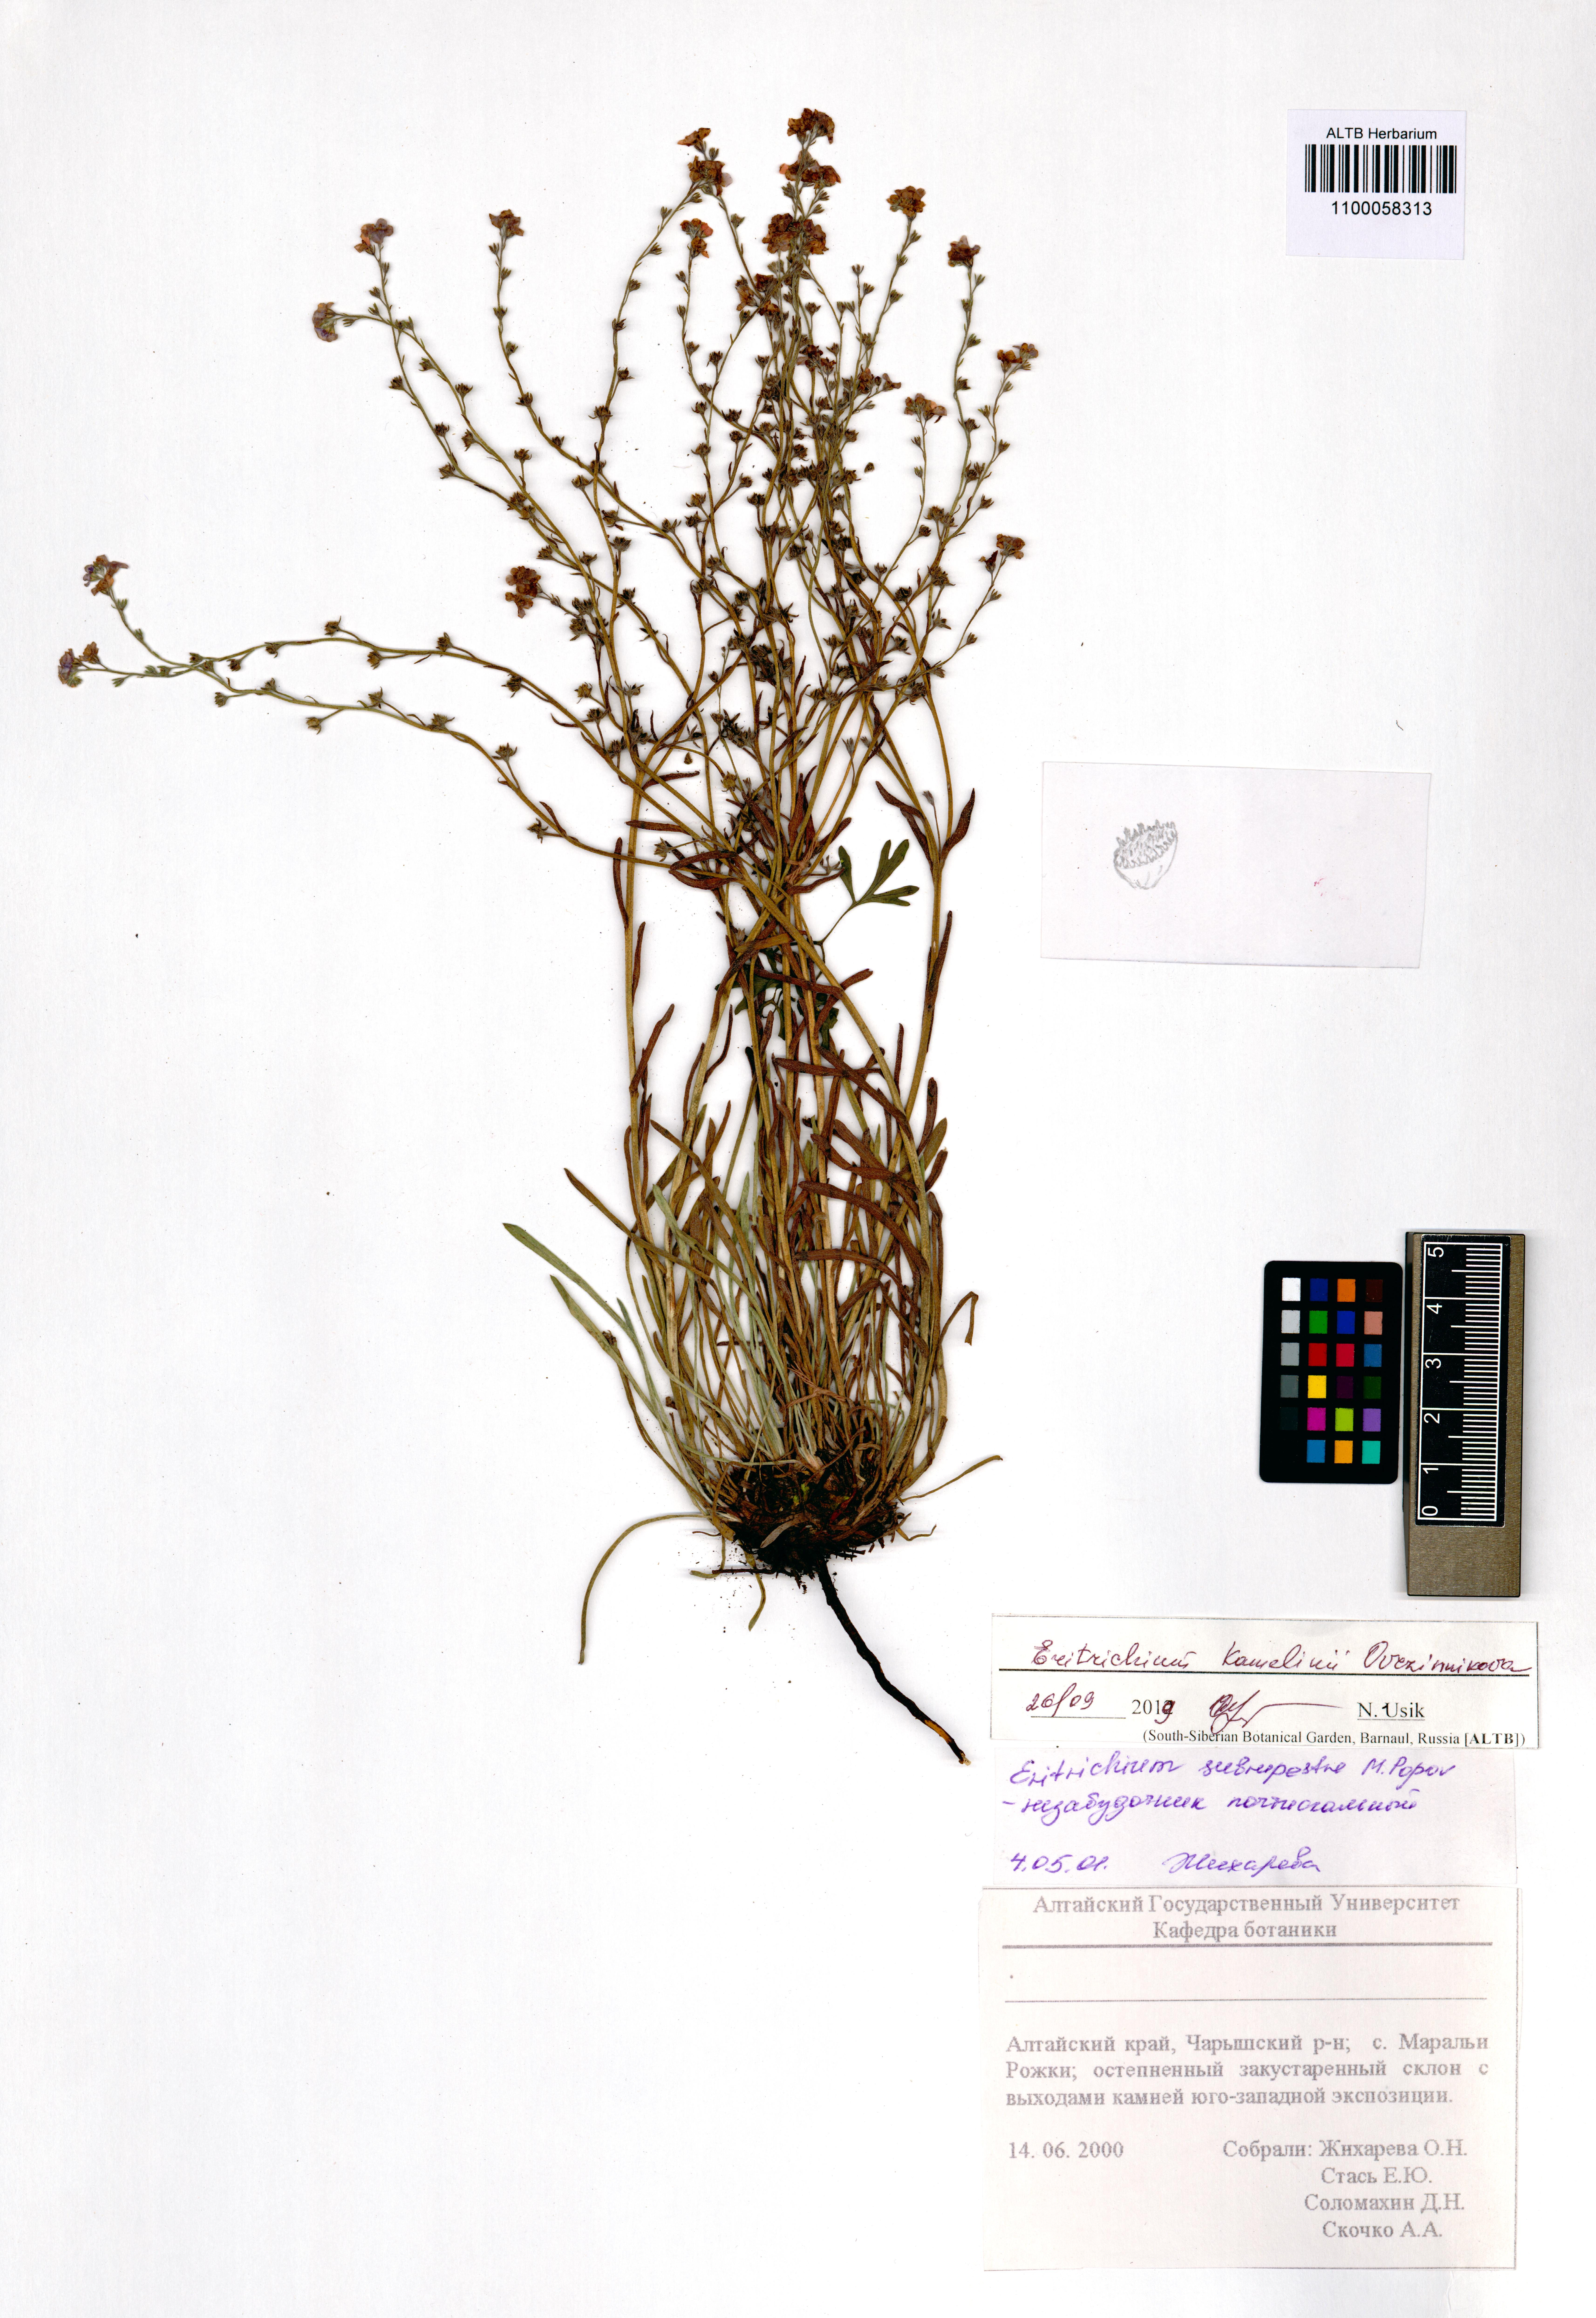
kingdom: Plantae
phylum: Tracheophyta
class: Magnoliopsida
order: Boraginales
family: Boraginaceae
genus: Eritrichium
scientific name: Eritrichium kamelinii
